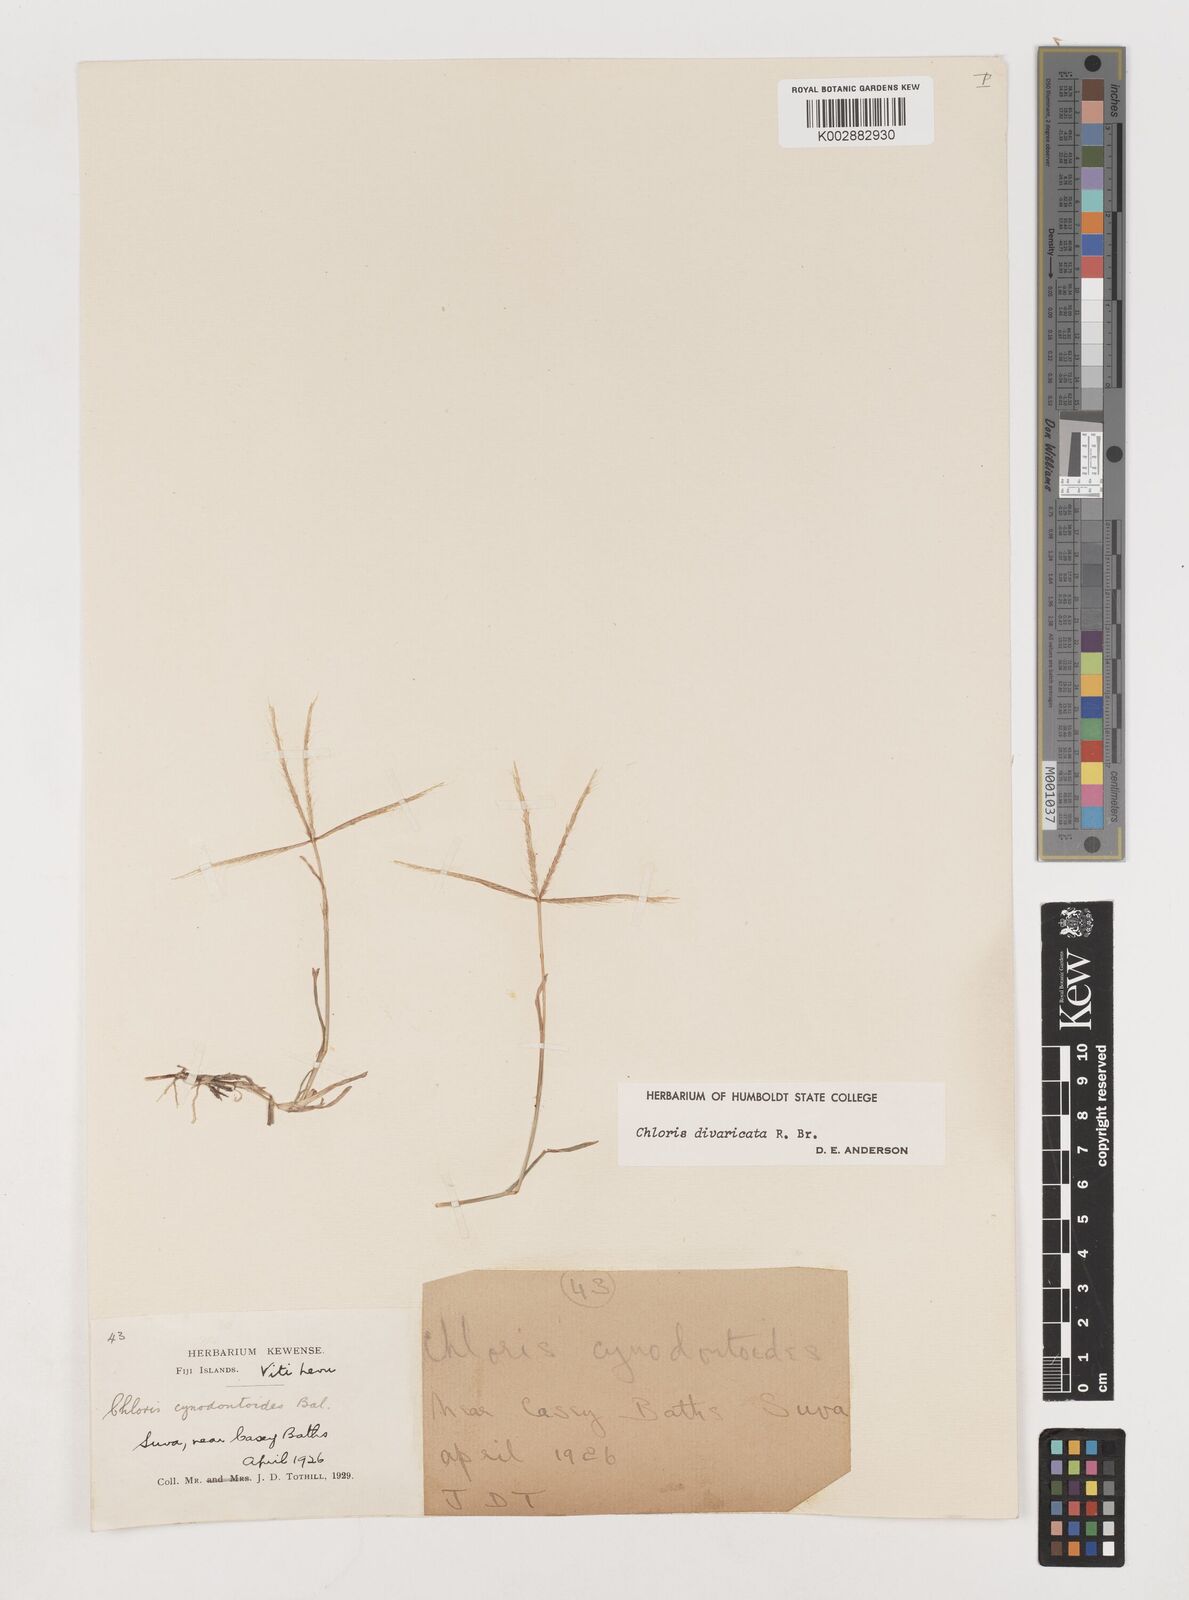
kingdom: Plantae
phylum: Tracheophyta
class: Liliopsida
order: Poales
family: Poaceae
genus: Chloris
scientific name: Chloris divaricata
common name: Spreading windmill grass
